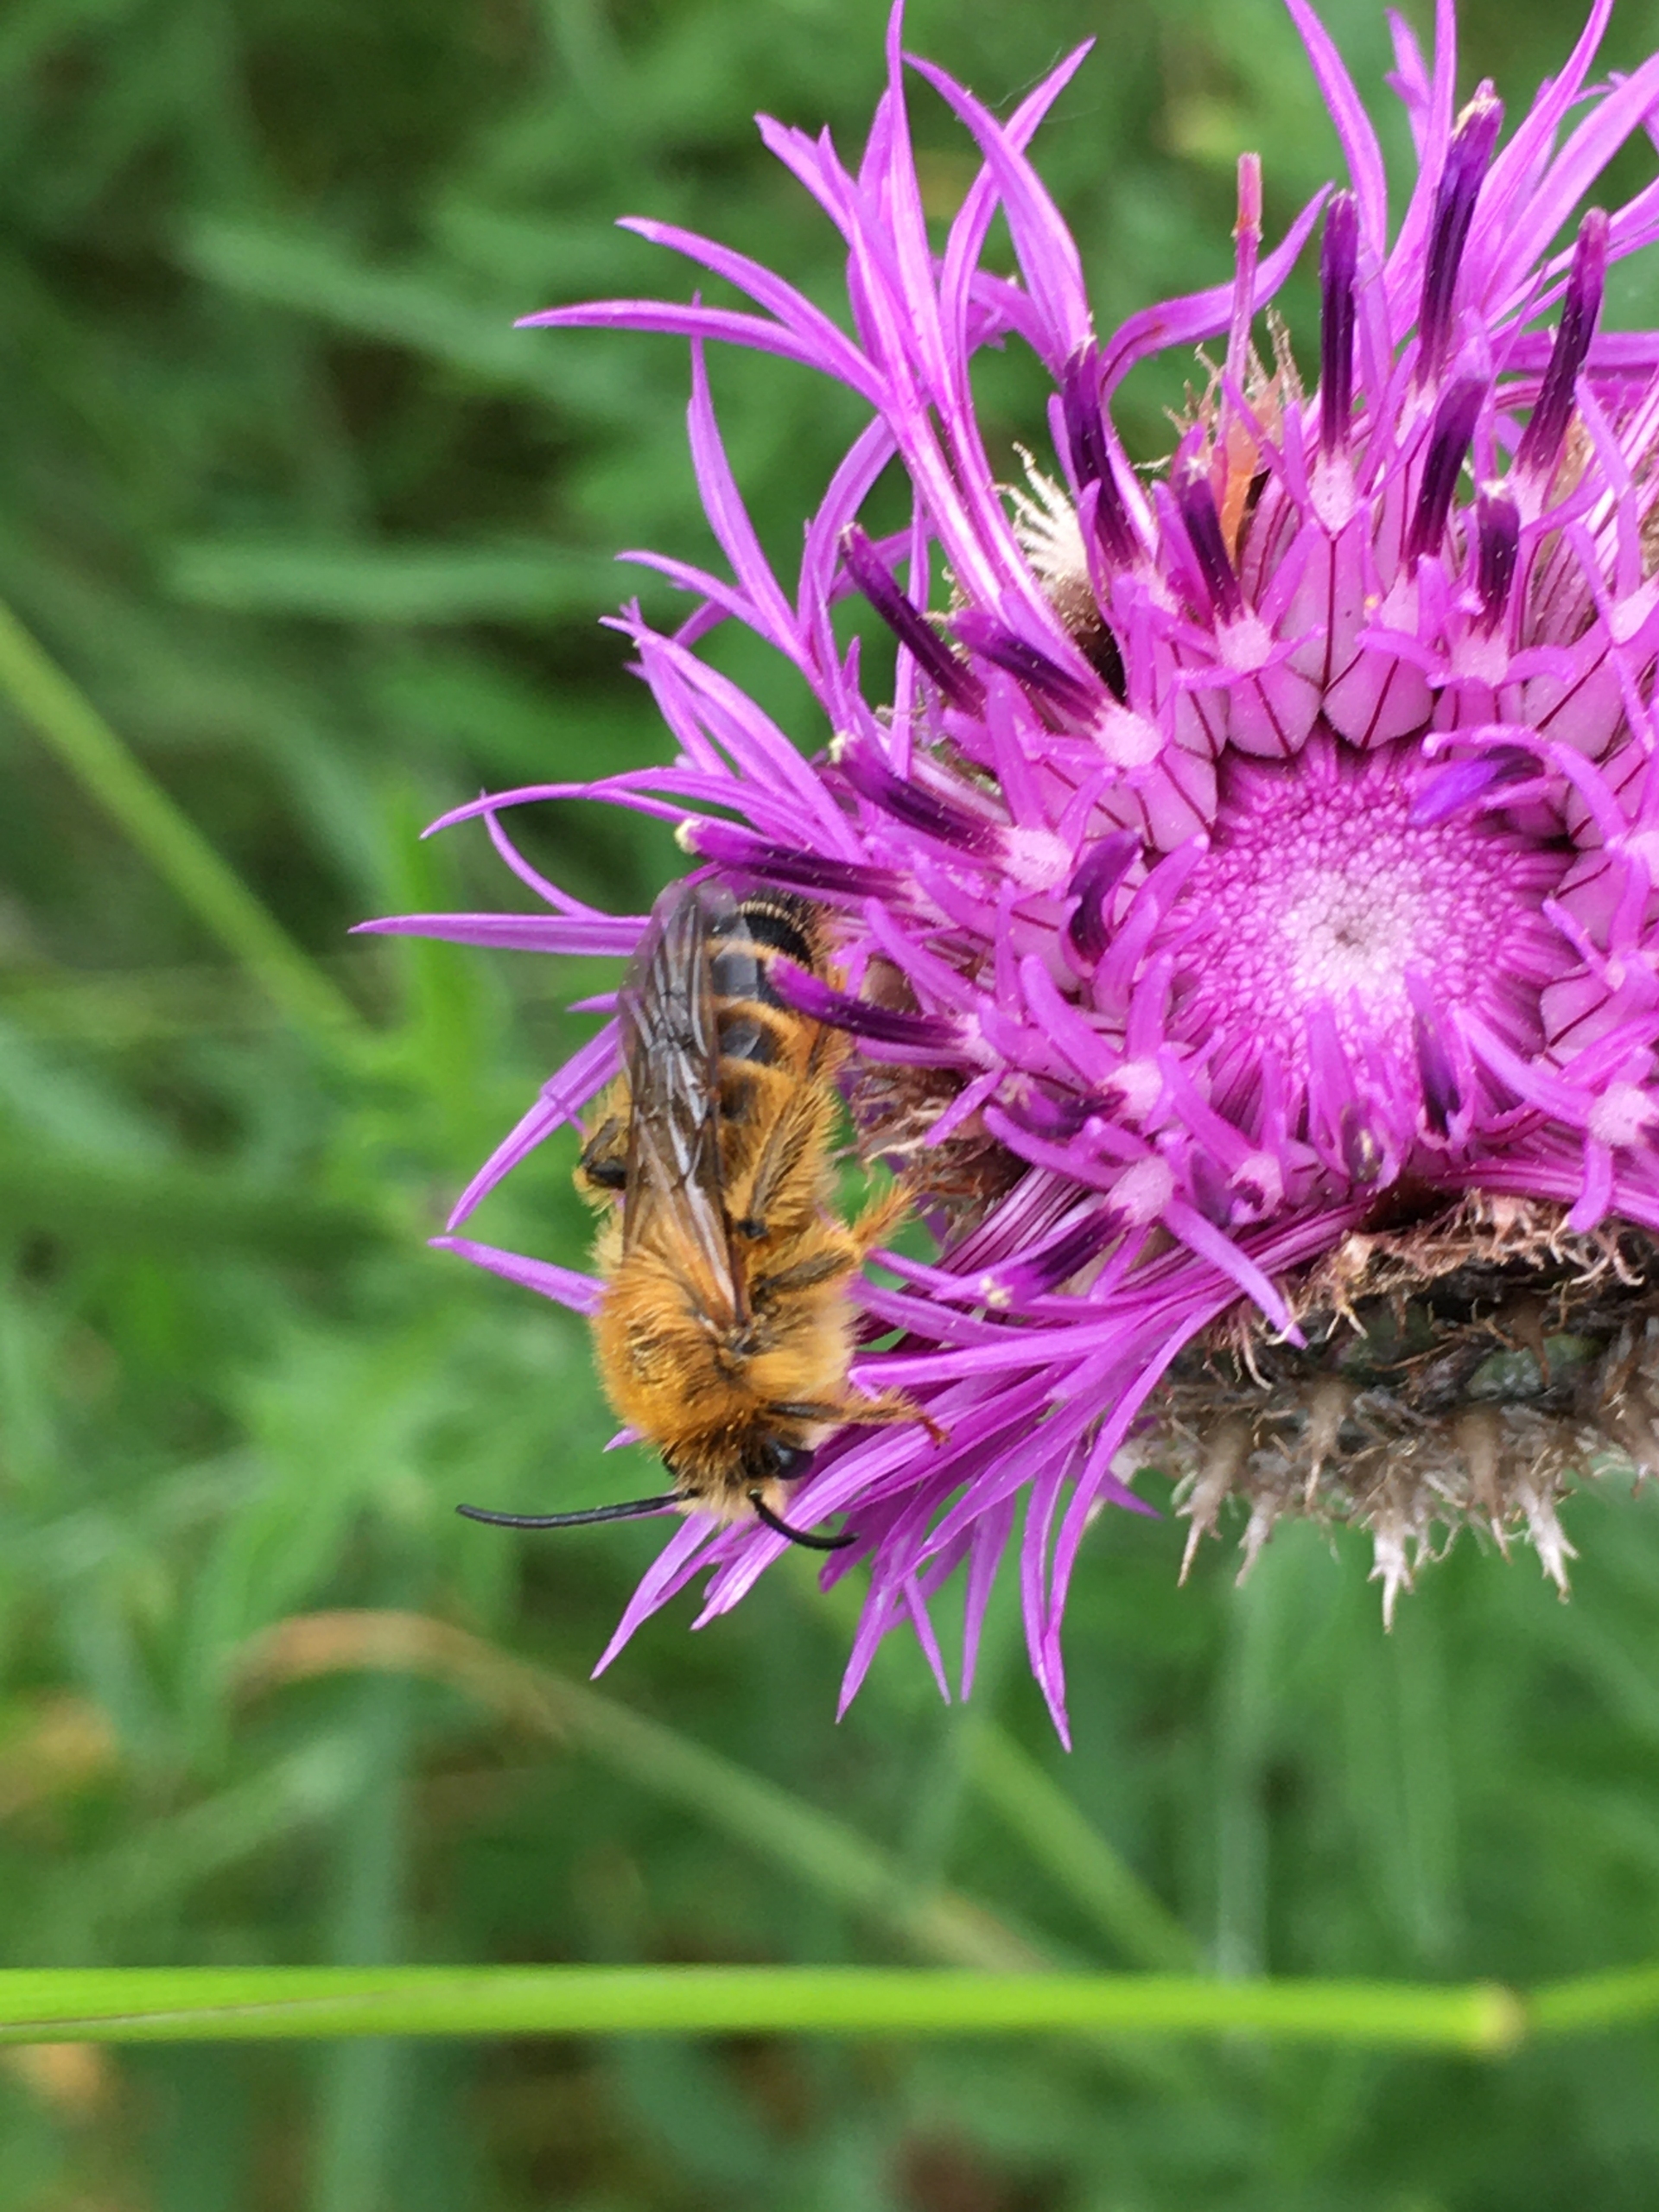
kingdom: Animalia
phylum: Arthropoda
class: Insecta
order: Hymenoptera
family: Melittidae
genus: Dasypoda
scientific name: Dasypoda hirtipes
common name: Pragtbuksebi
